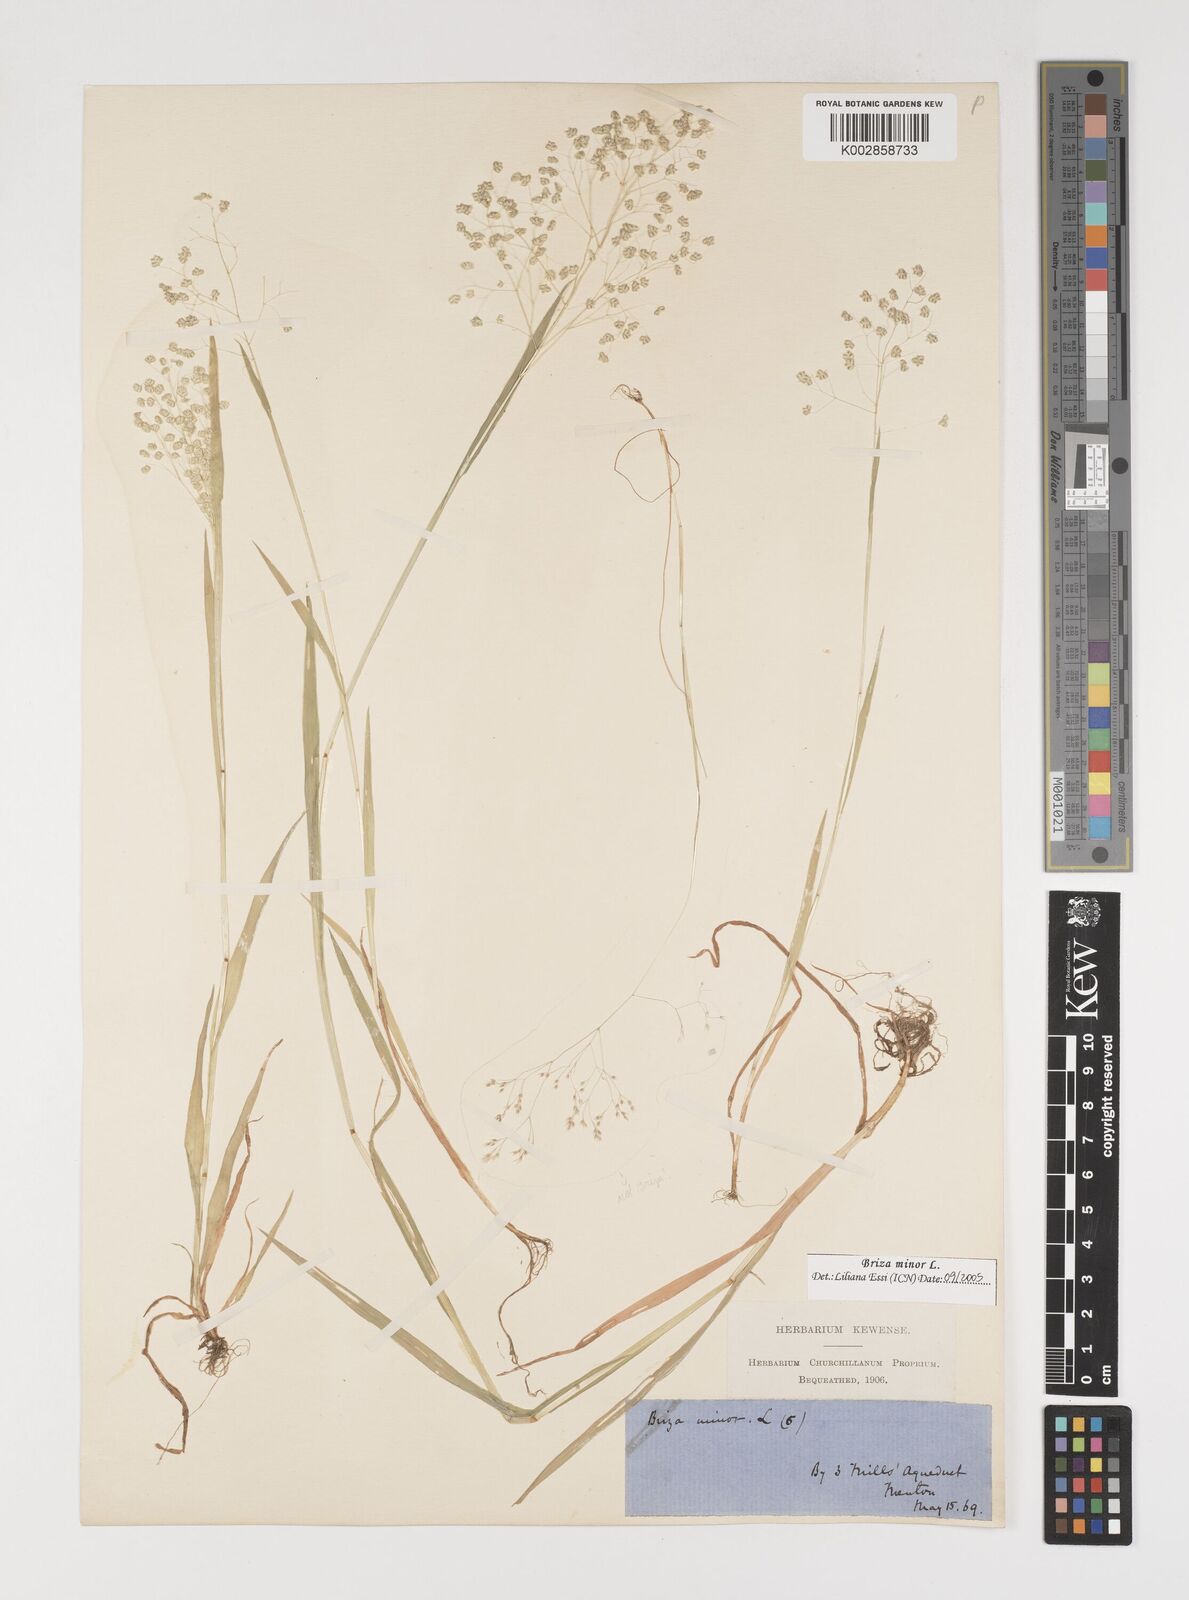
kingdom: Plantae
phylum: Tracheophyta
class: Liliopsida
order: Poales
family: Poaceae
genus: Briza
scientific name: Briza minor
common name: Lesser quaking-grass
